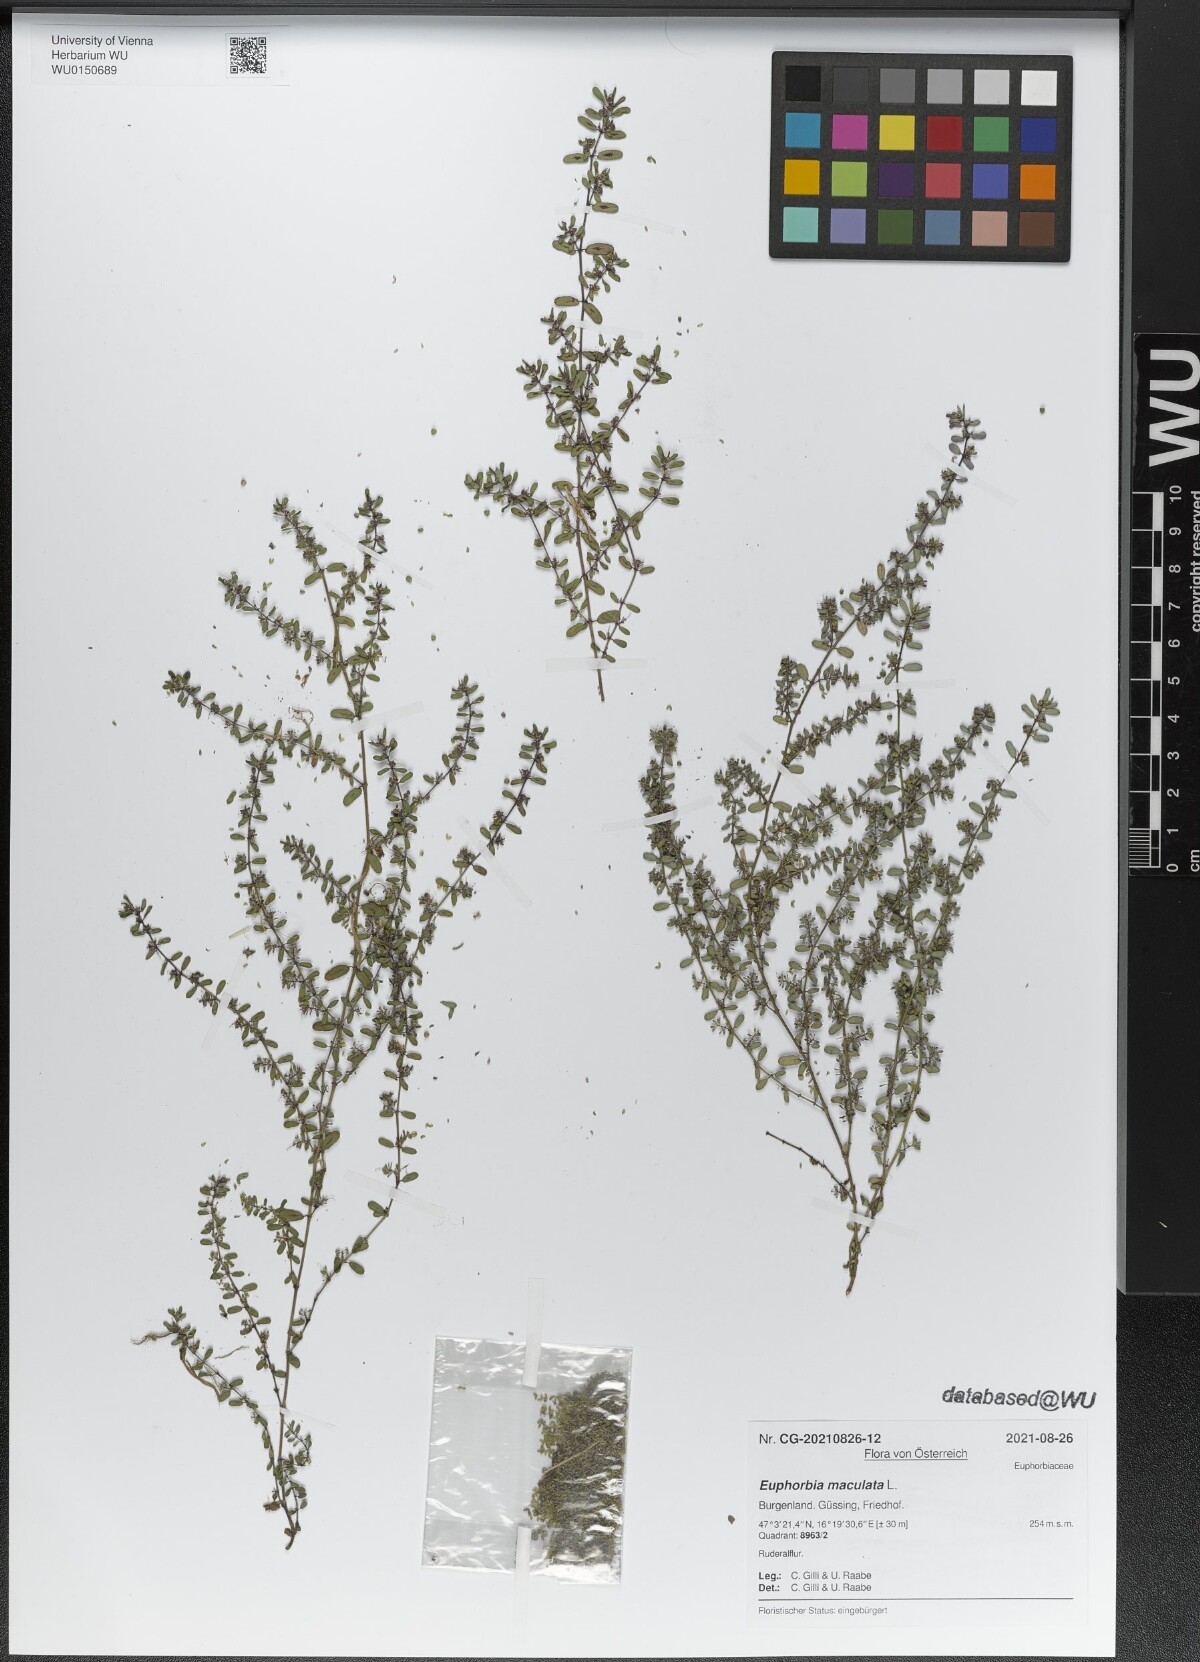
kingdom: Plantae
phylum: Tracheophyta
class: Magnoliopsida
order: Malpighiales
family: Euphorbiaceae
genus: Euphorbia
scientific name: Euphorbia maculata
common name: Spotted spurge
